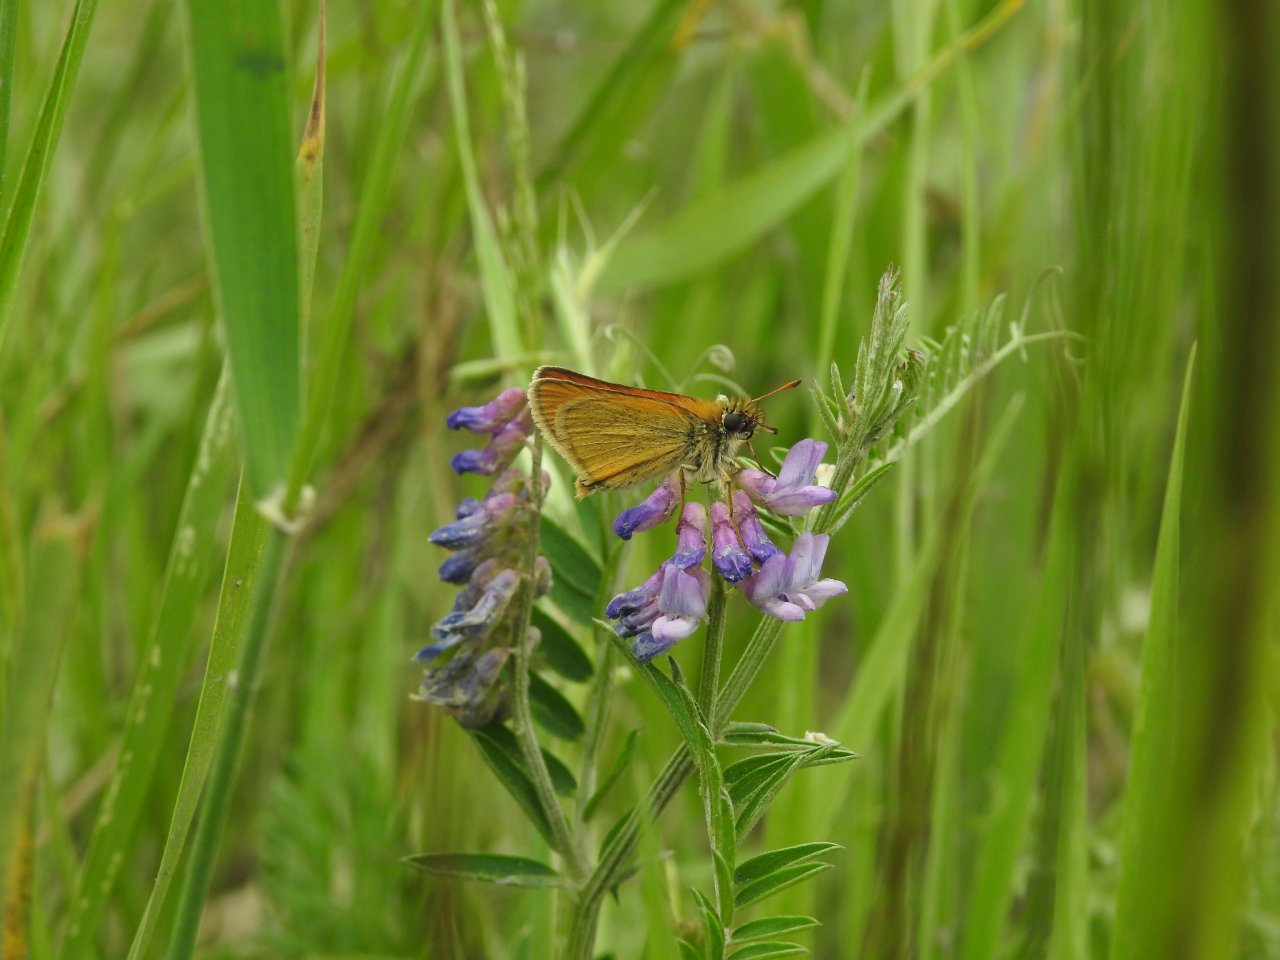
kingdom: Animalia
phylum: Arthropoda
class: Insecta
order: Lepidoptera
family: Hesperiidae
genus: Thymelicus
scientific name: Thymelicus lineola
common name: European Skipper
